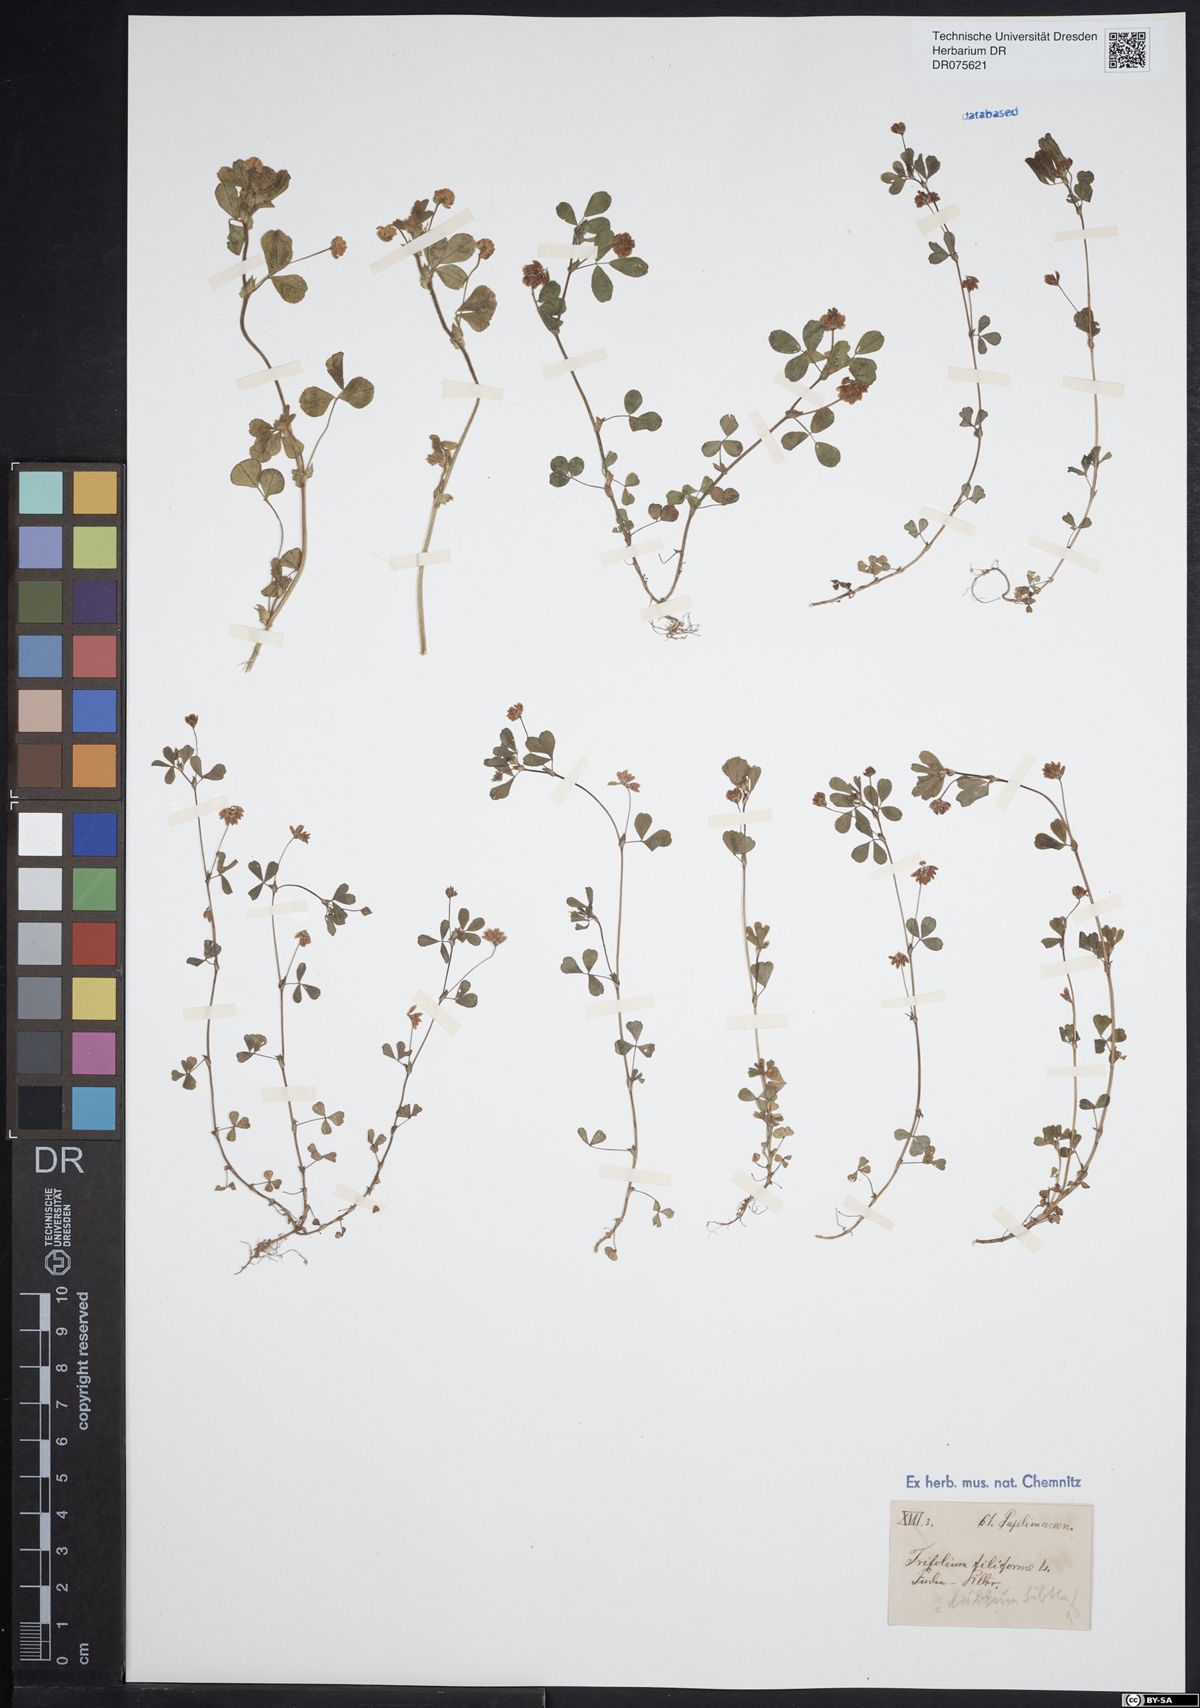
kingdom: Plantae
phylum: Tracheophyta
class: Magnoliopsida
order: Fabales
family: Fabaceae
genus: Trifolium
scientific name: Trifolium dubium
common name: Suckling clover
